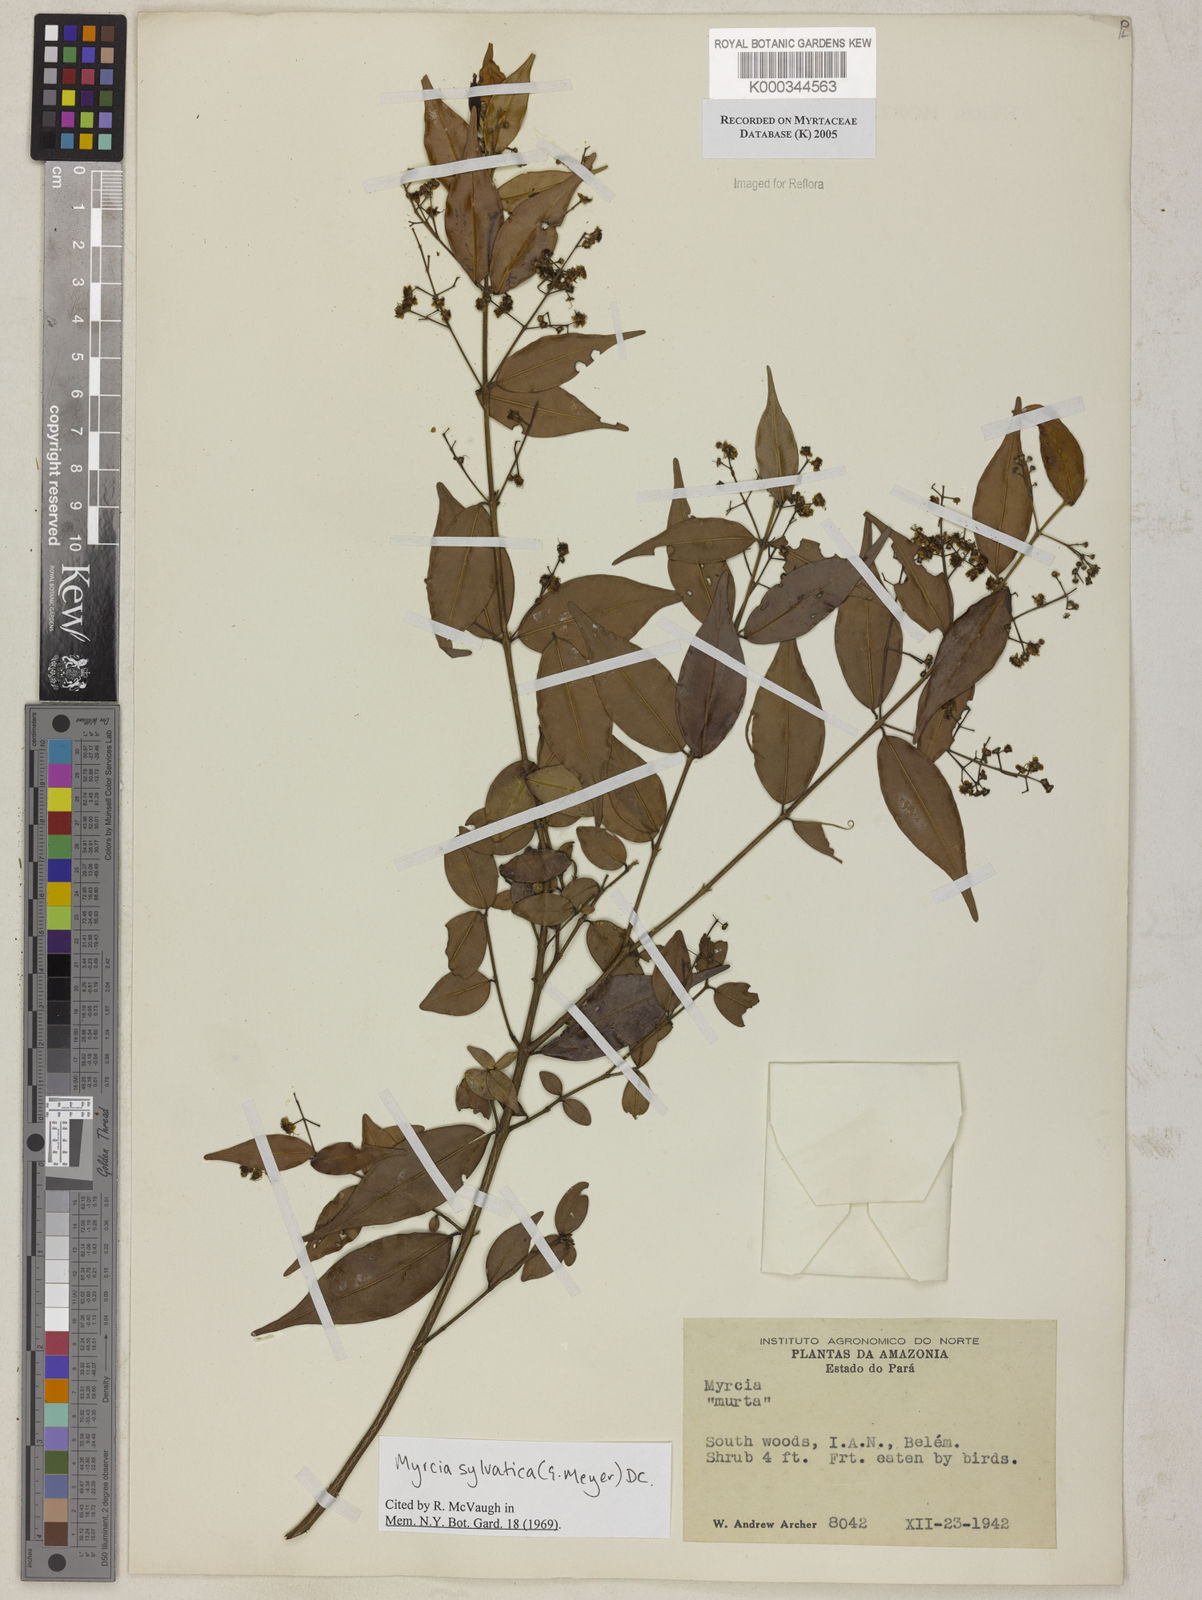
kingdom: Plantae
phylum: Tracheophyta
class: Magnoliopsida
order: Myrtales
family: Myrtaceae
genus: Myrcia
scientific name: Myrcia sylvatica
